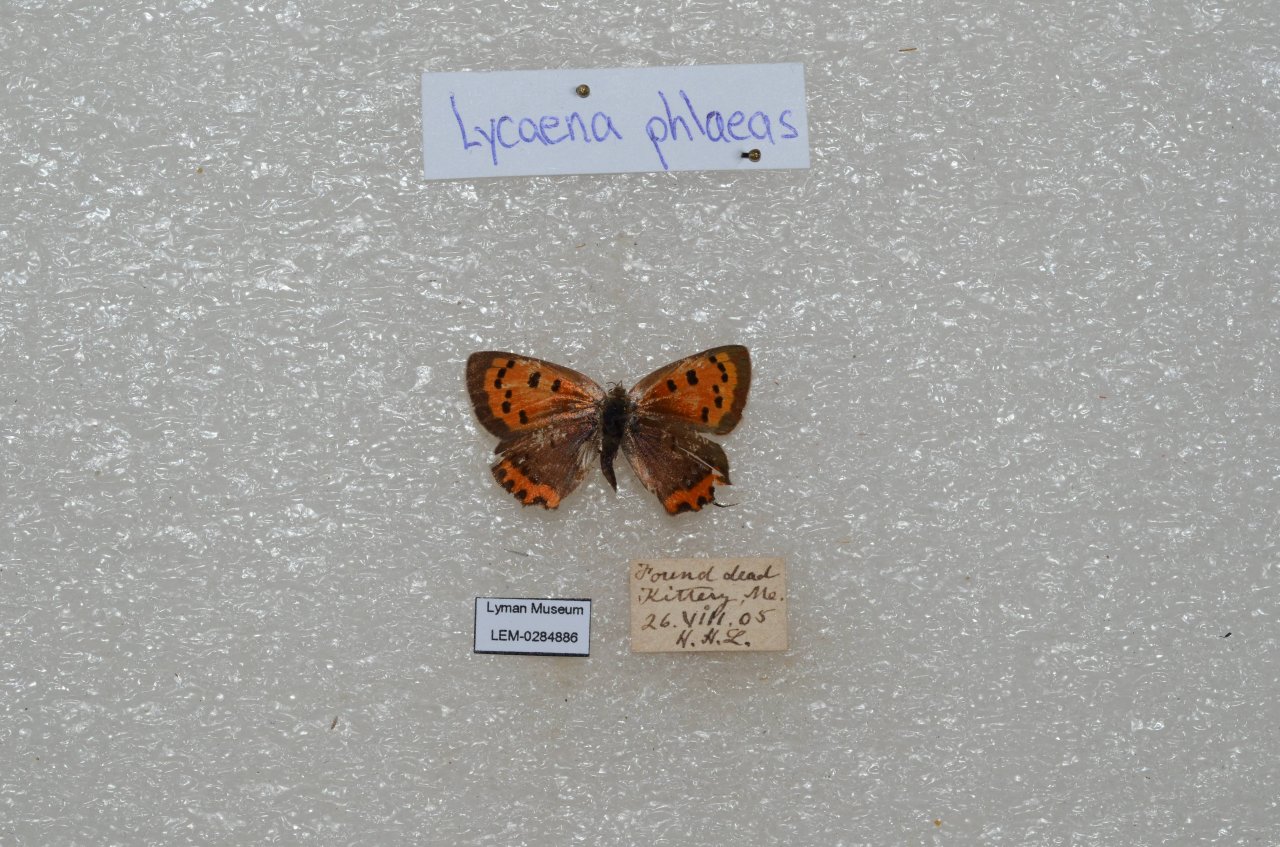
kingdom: Animalia
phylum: Arthropoda
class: Insecta
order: Lepidoptera
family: Lycaenidae
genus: Lycaena
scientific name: Lycaena phlaeas
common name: American Copper
